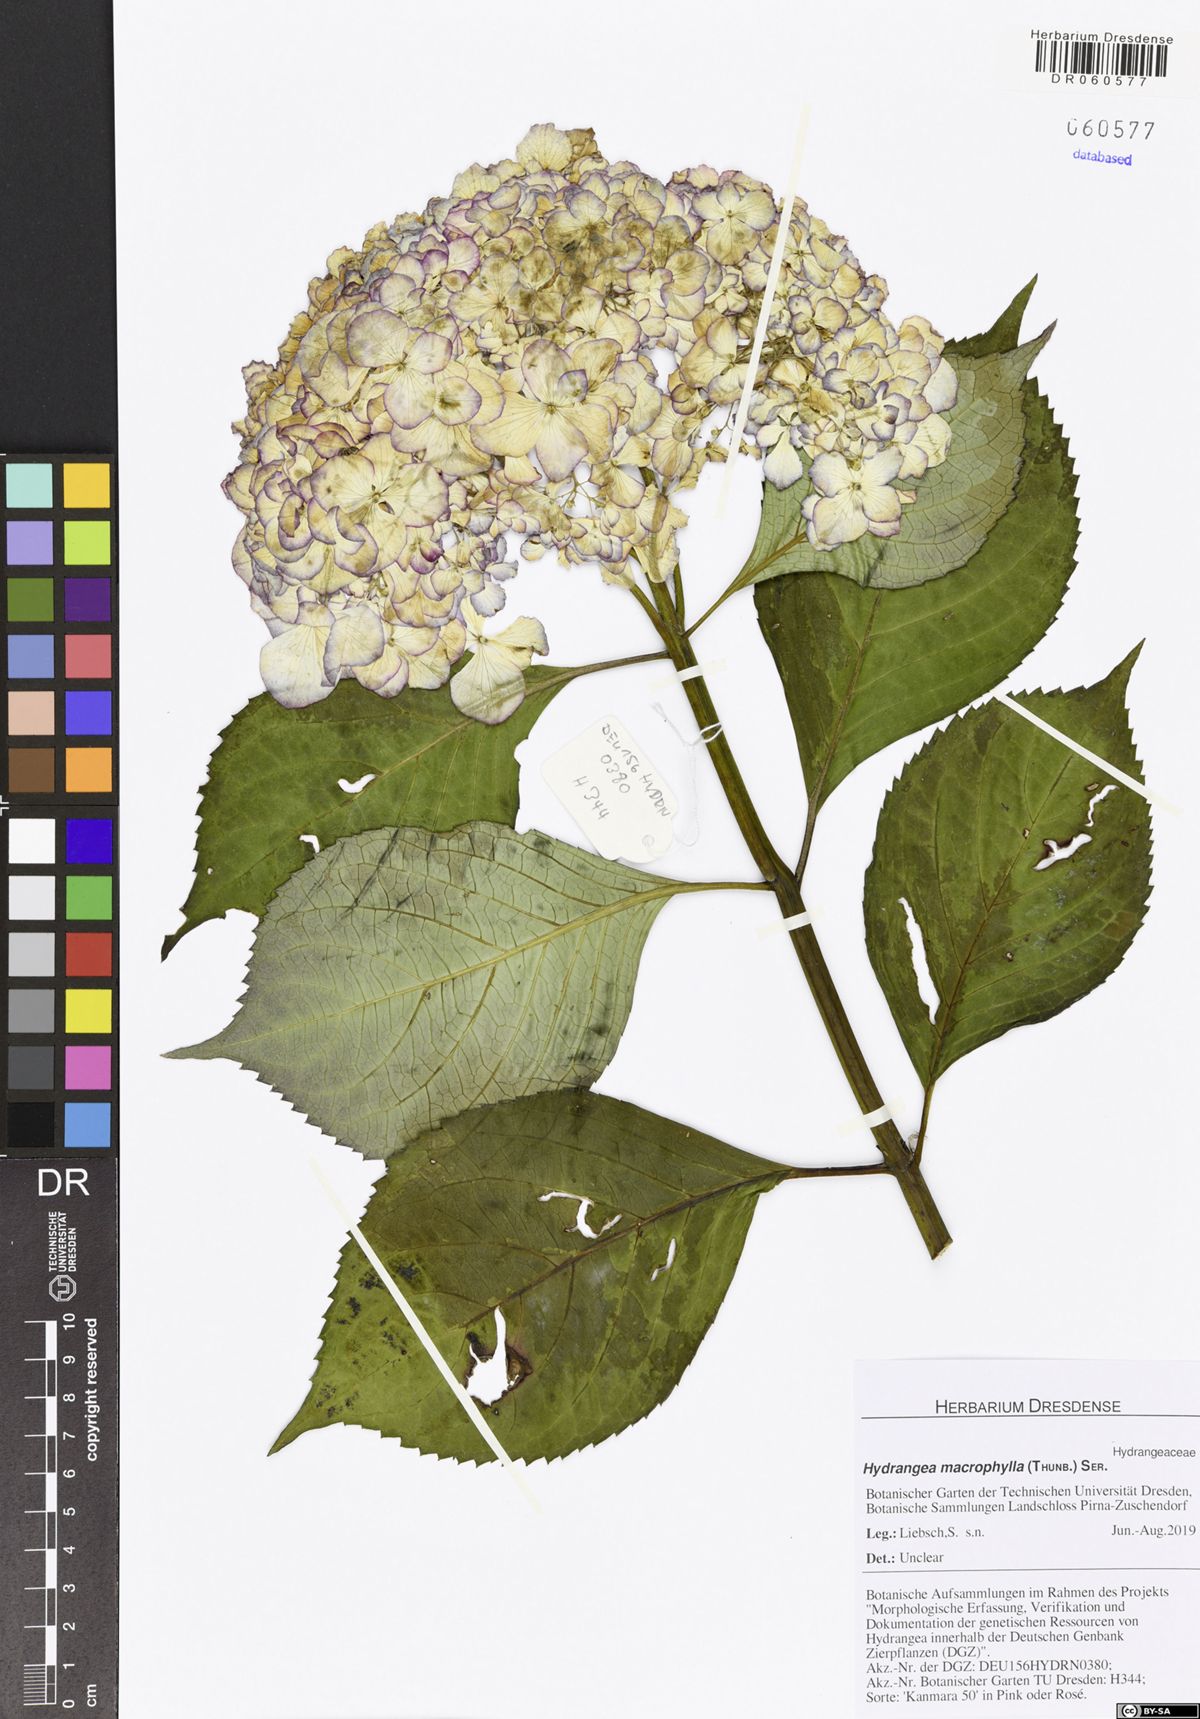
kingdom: Plantae
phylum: Tracheophyta
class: Magnoliopsida
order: Cornales
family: Hydrangeaceae
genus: Hydrangea
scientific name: Hydrangea macrophylla
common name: Hydrangea
